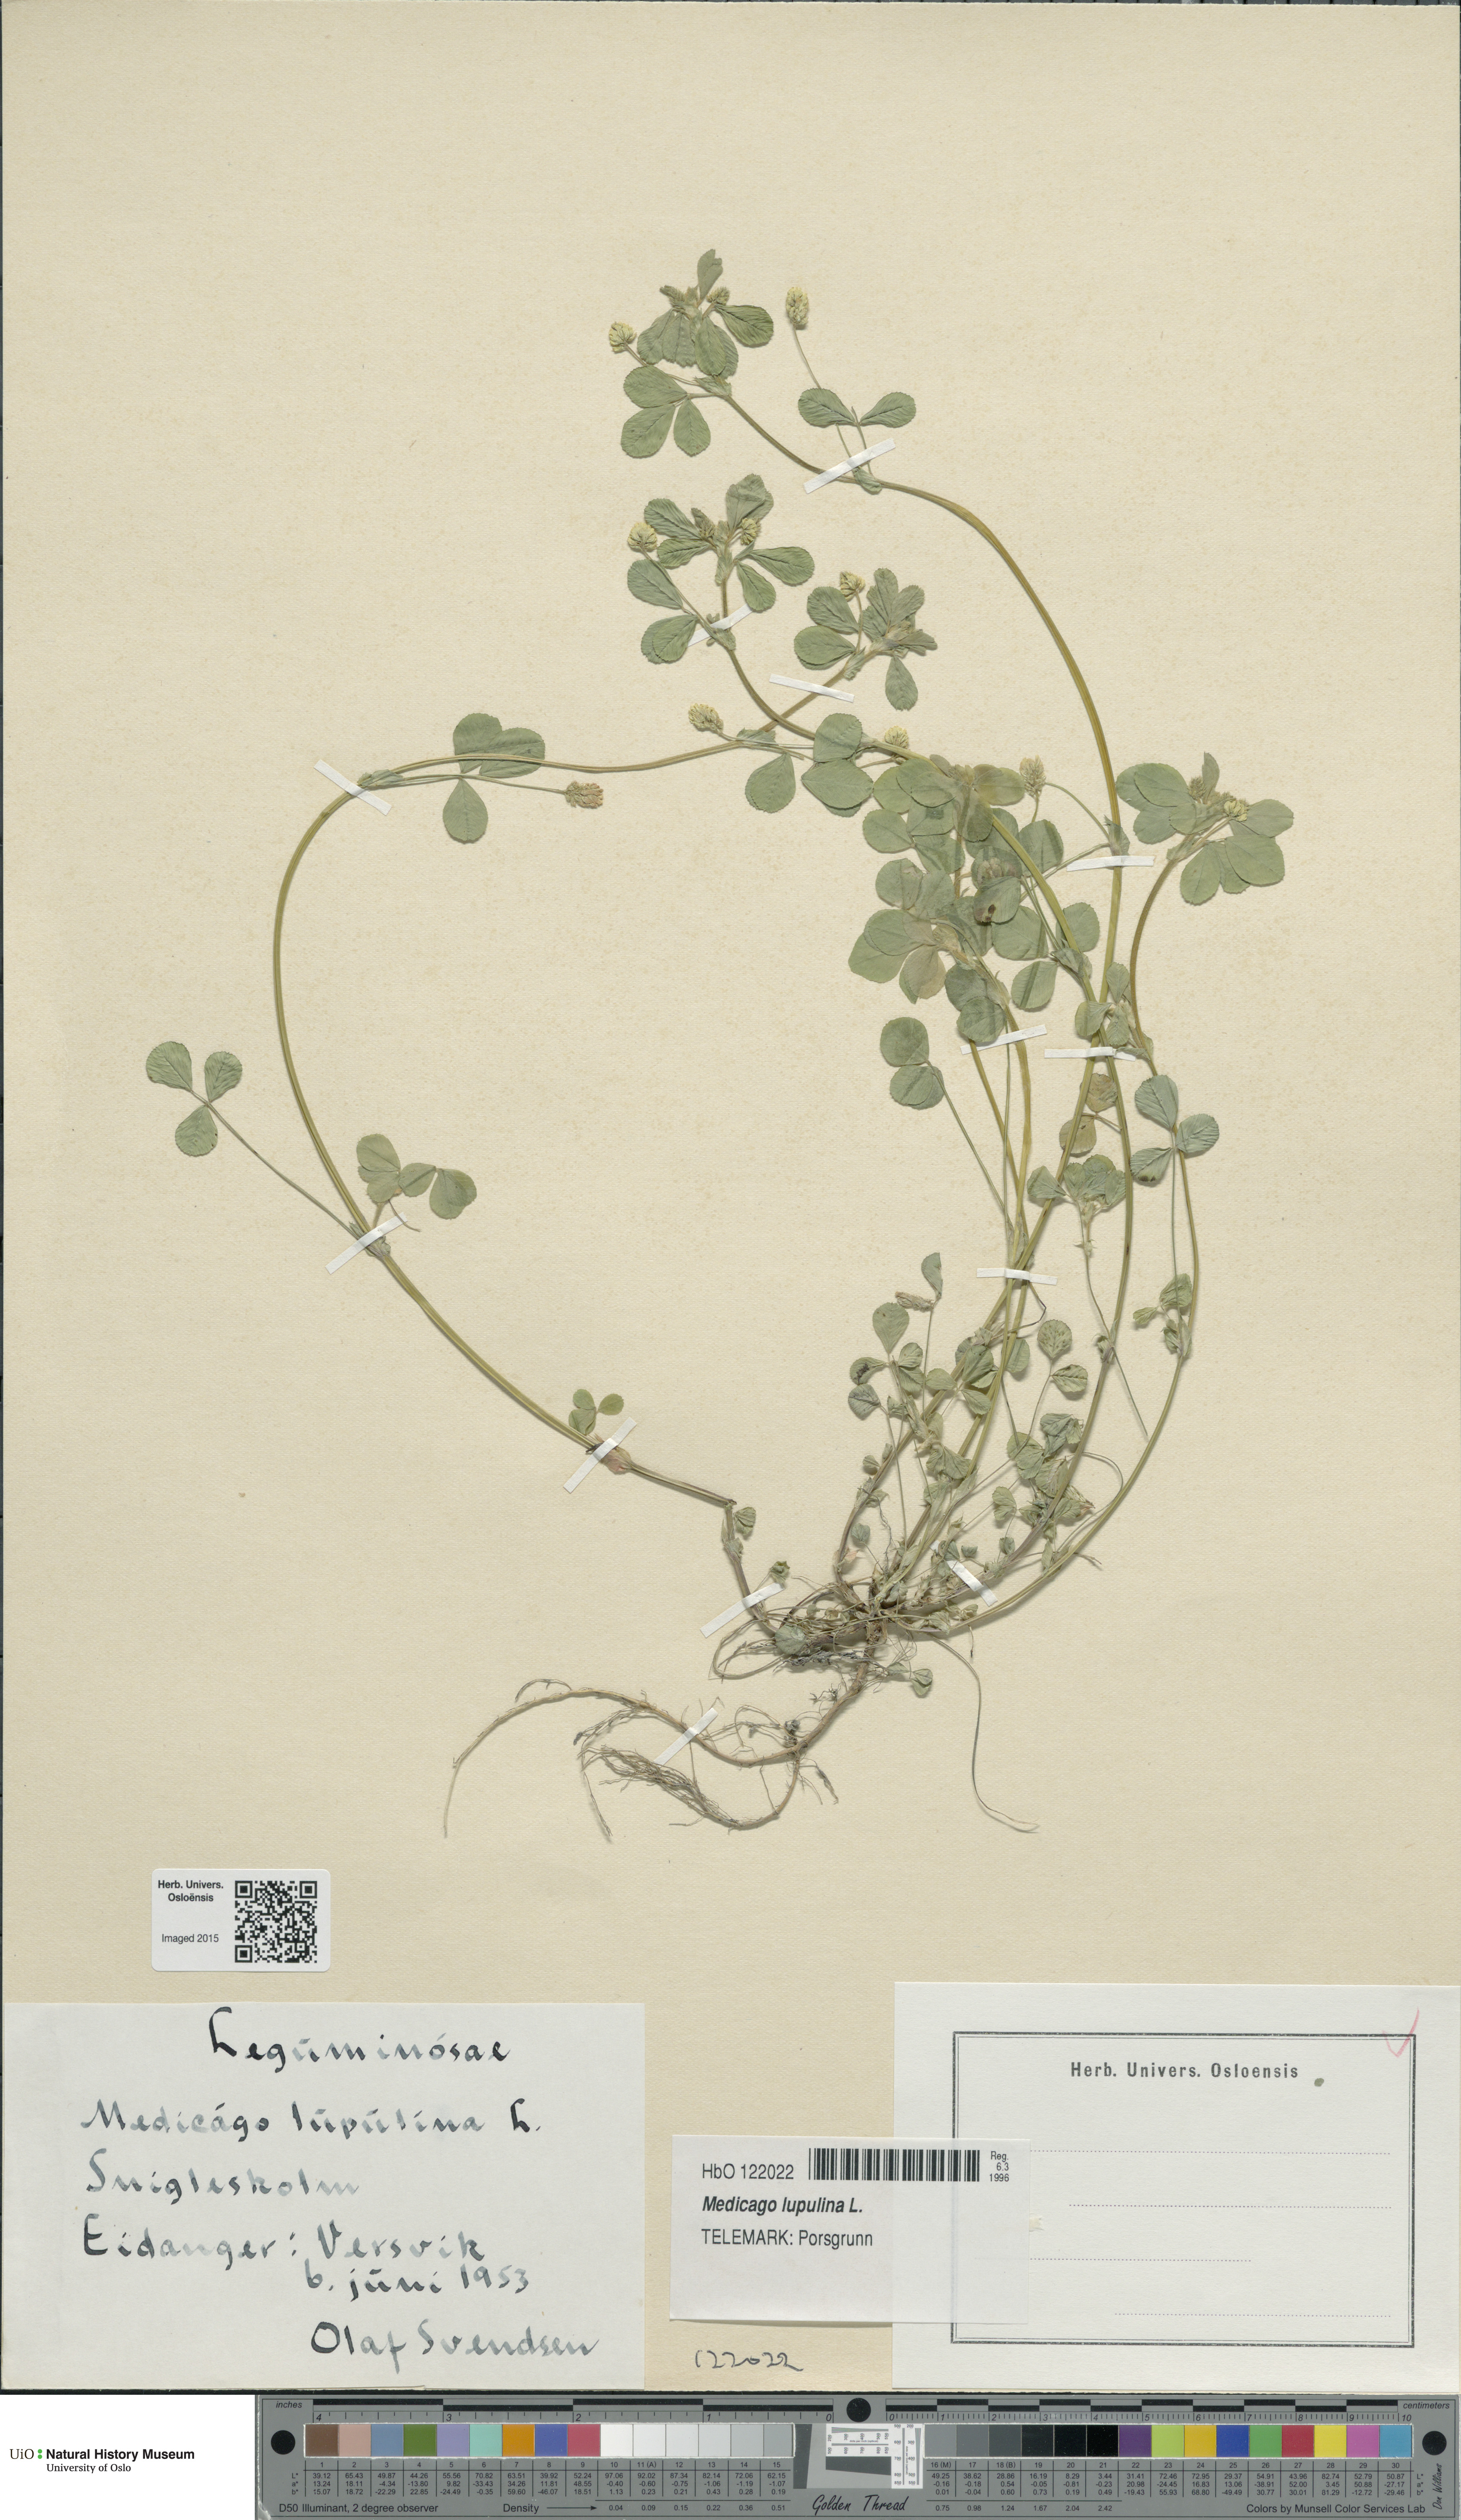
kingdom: Plantae
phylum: Tracheophyta
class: Magnoliopsida
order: Fabales
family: Fabaceae
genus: Medicago
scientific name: Medicago lupulina
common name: Black medick
